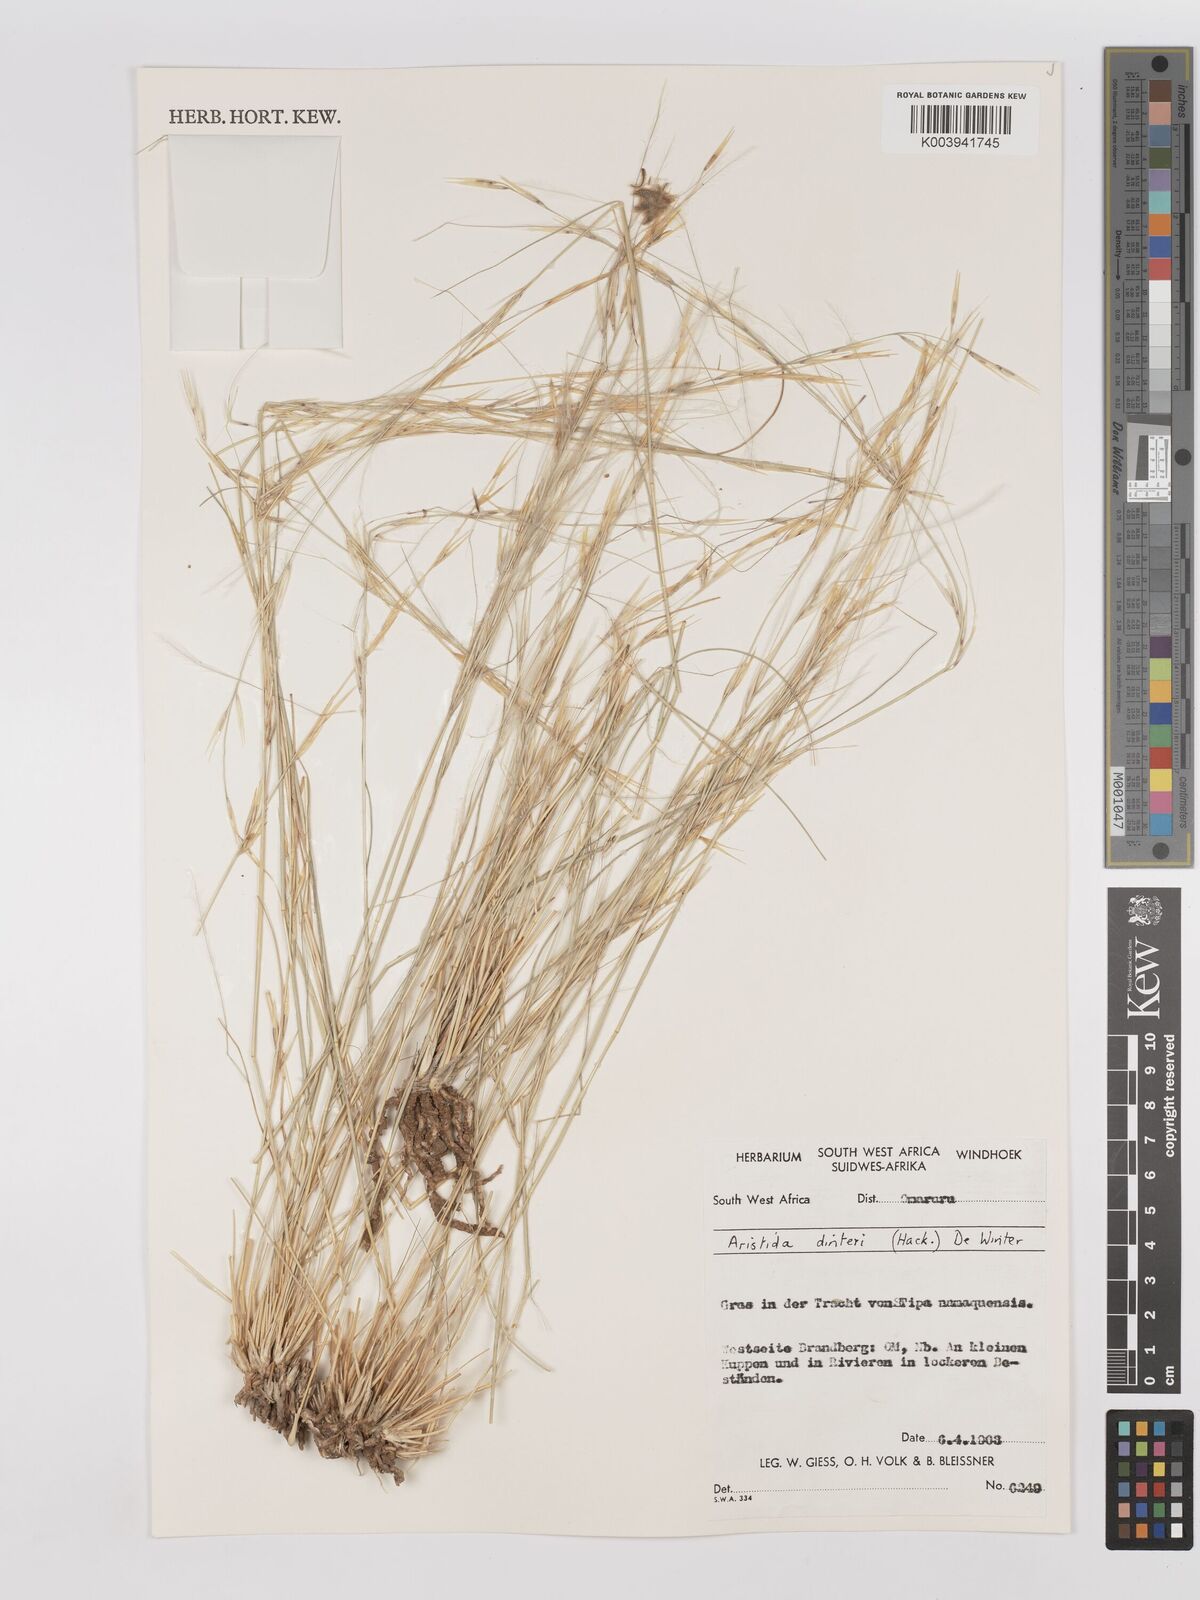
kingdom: Plantae
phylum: Tracheophyta
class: Liliopsida
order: Poales
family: Poaceae
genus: Stipagrostis
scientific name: Stipagrostis dinteri
